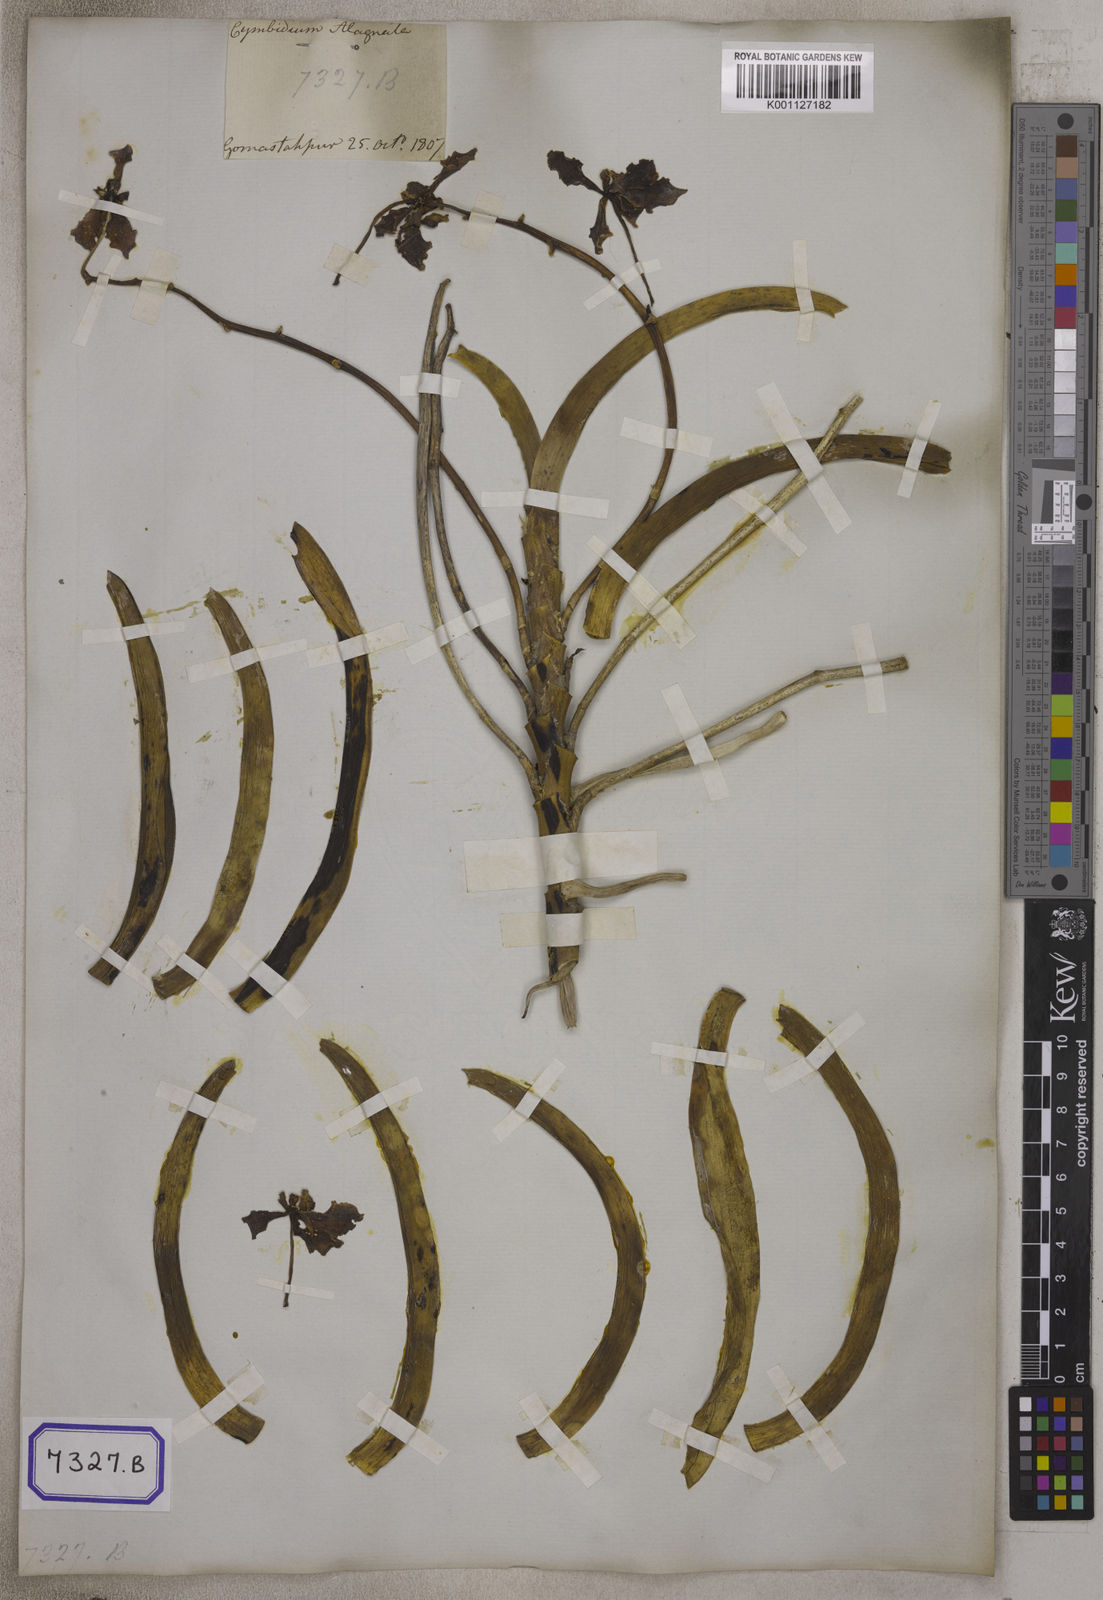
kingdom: Plantae
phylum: Tracheophyta
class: Liliopsida
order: Asparagales
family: Orchidaceae
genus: Vanda
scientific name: Vanda tessellata
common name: Grey orchid
